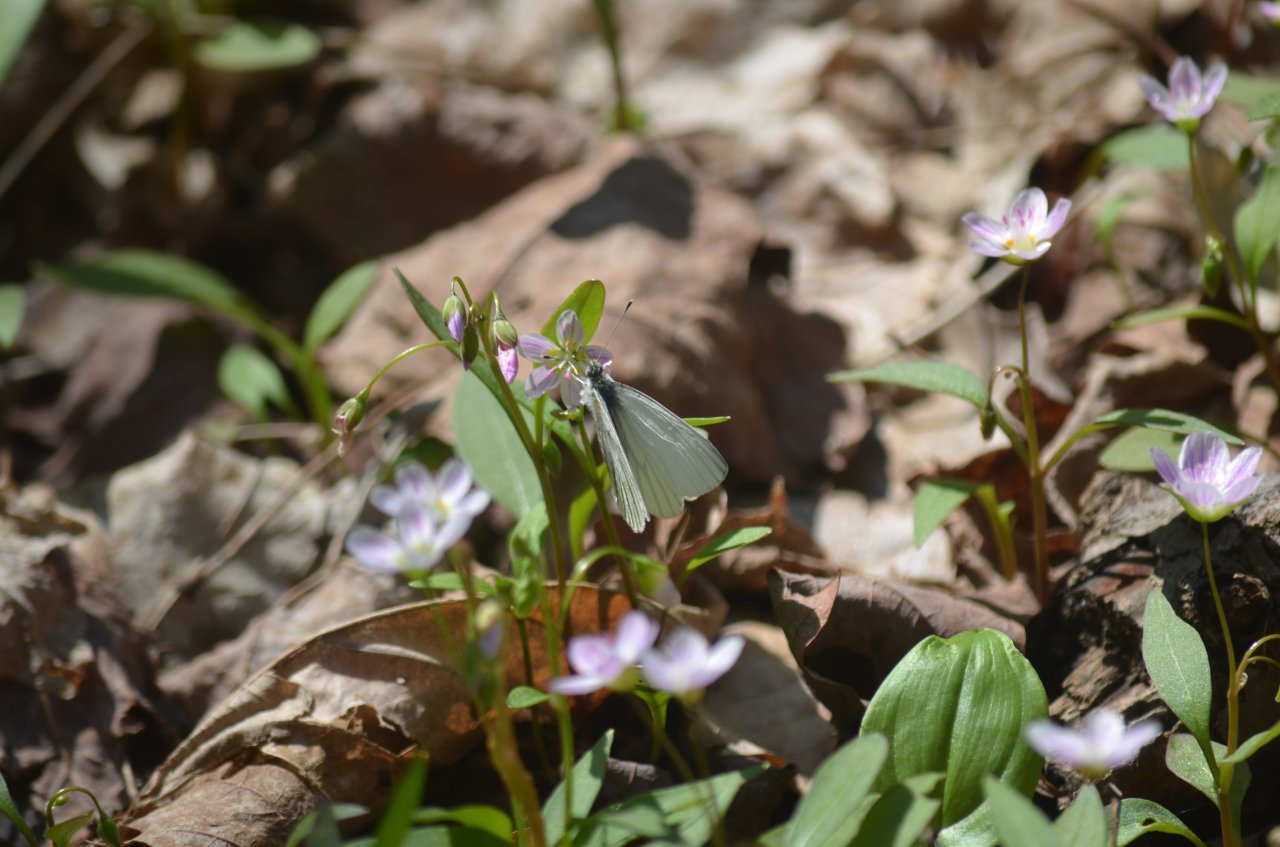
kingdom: Animalia
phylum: Arthropoda
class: Insecta
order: Lepidoptera
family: Pieridae
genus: Pieris
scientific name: Pieris oleracea
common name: Mustard White
